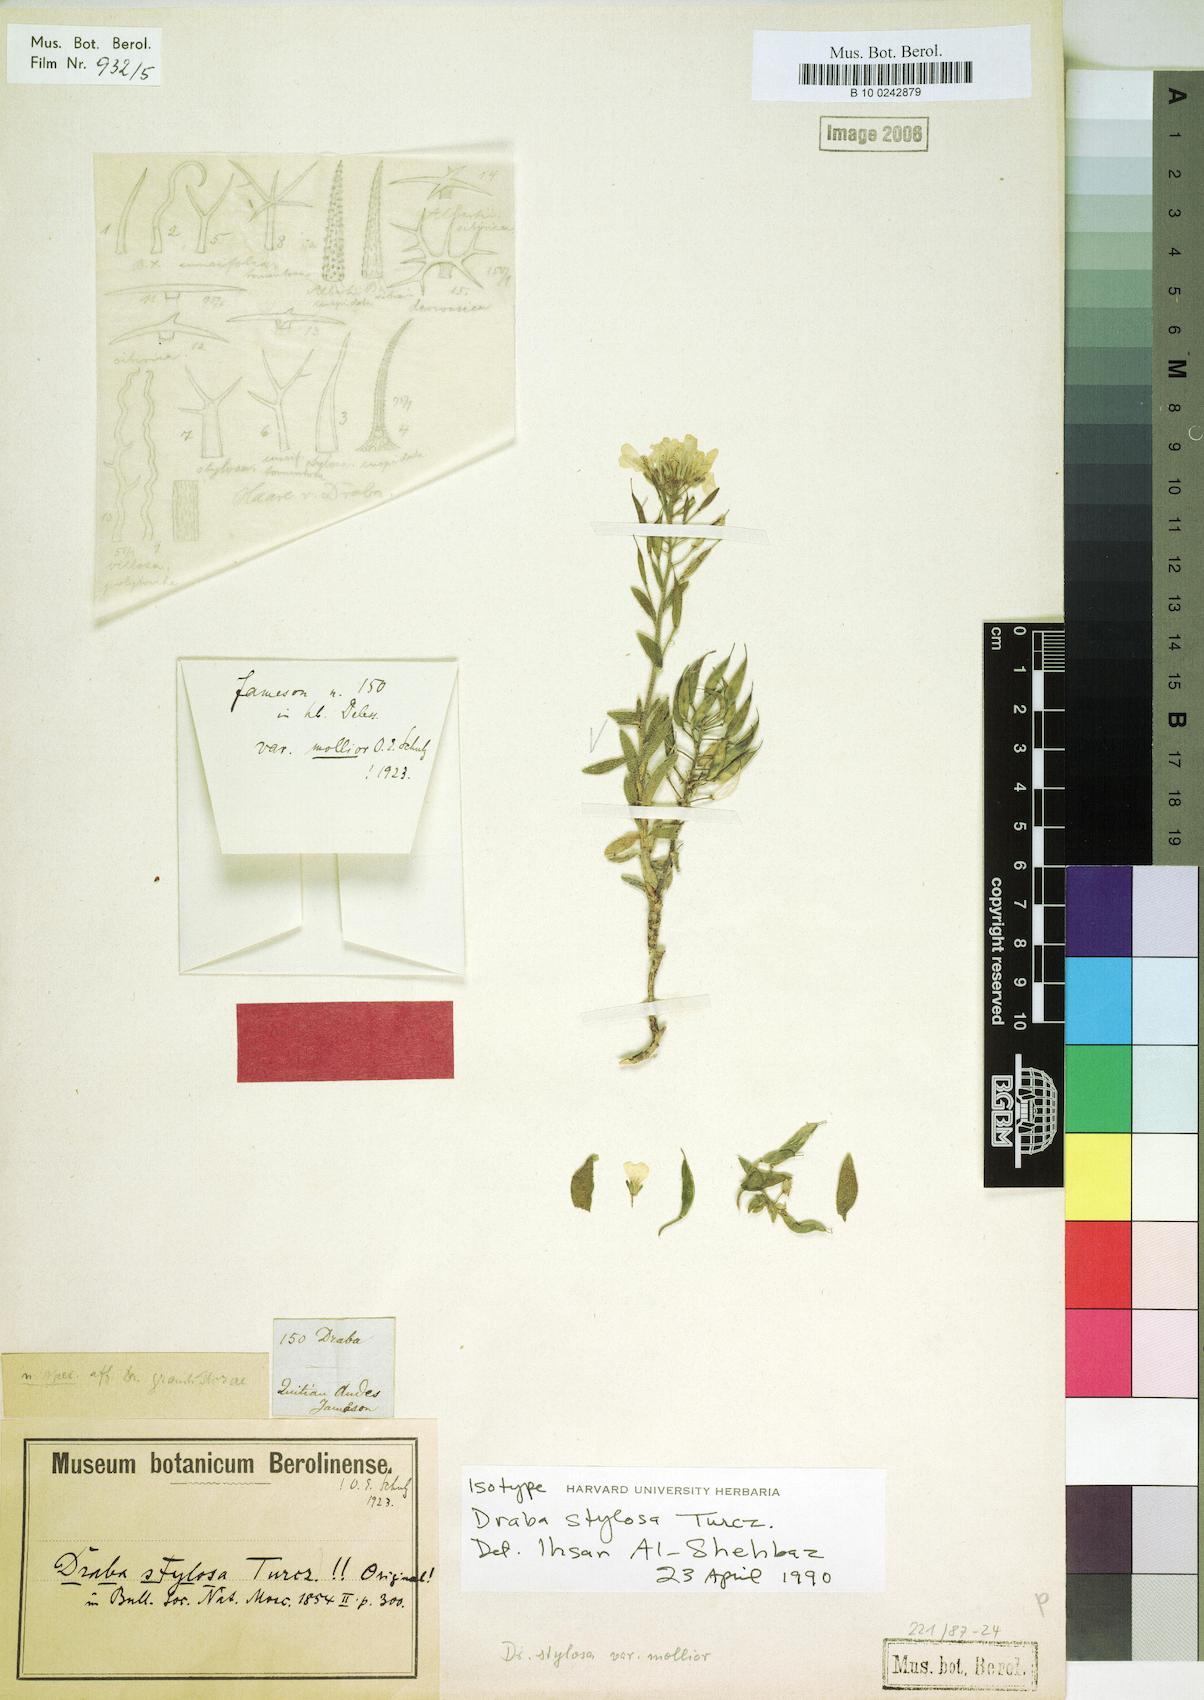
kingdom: Plantae
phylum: Tracheophyta
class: Magnoliopsida
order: Brassicales
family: Brassicaceae
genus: Draba
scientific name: Draba stylosa
